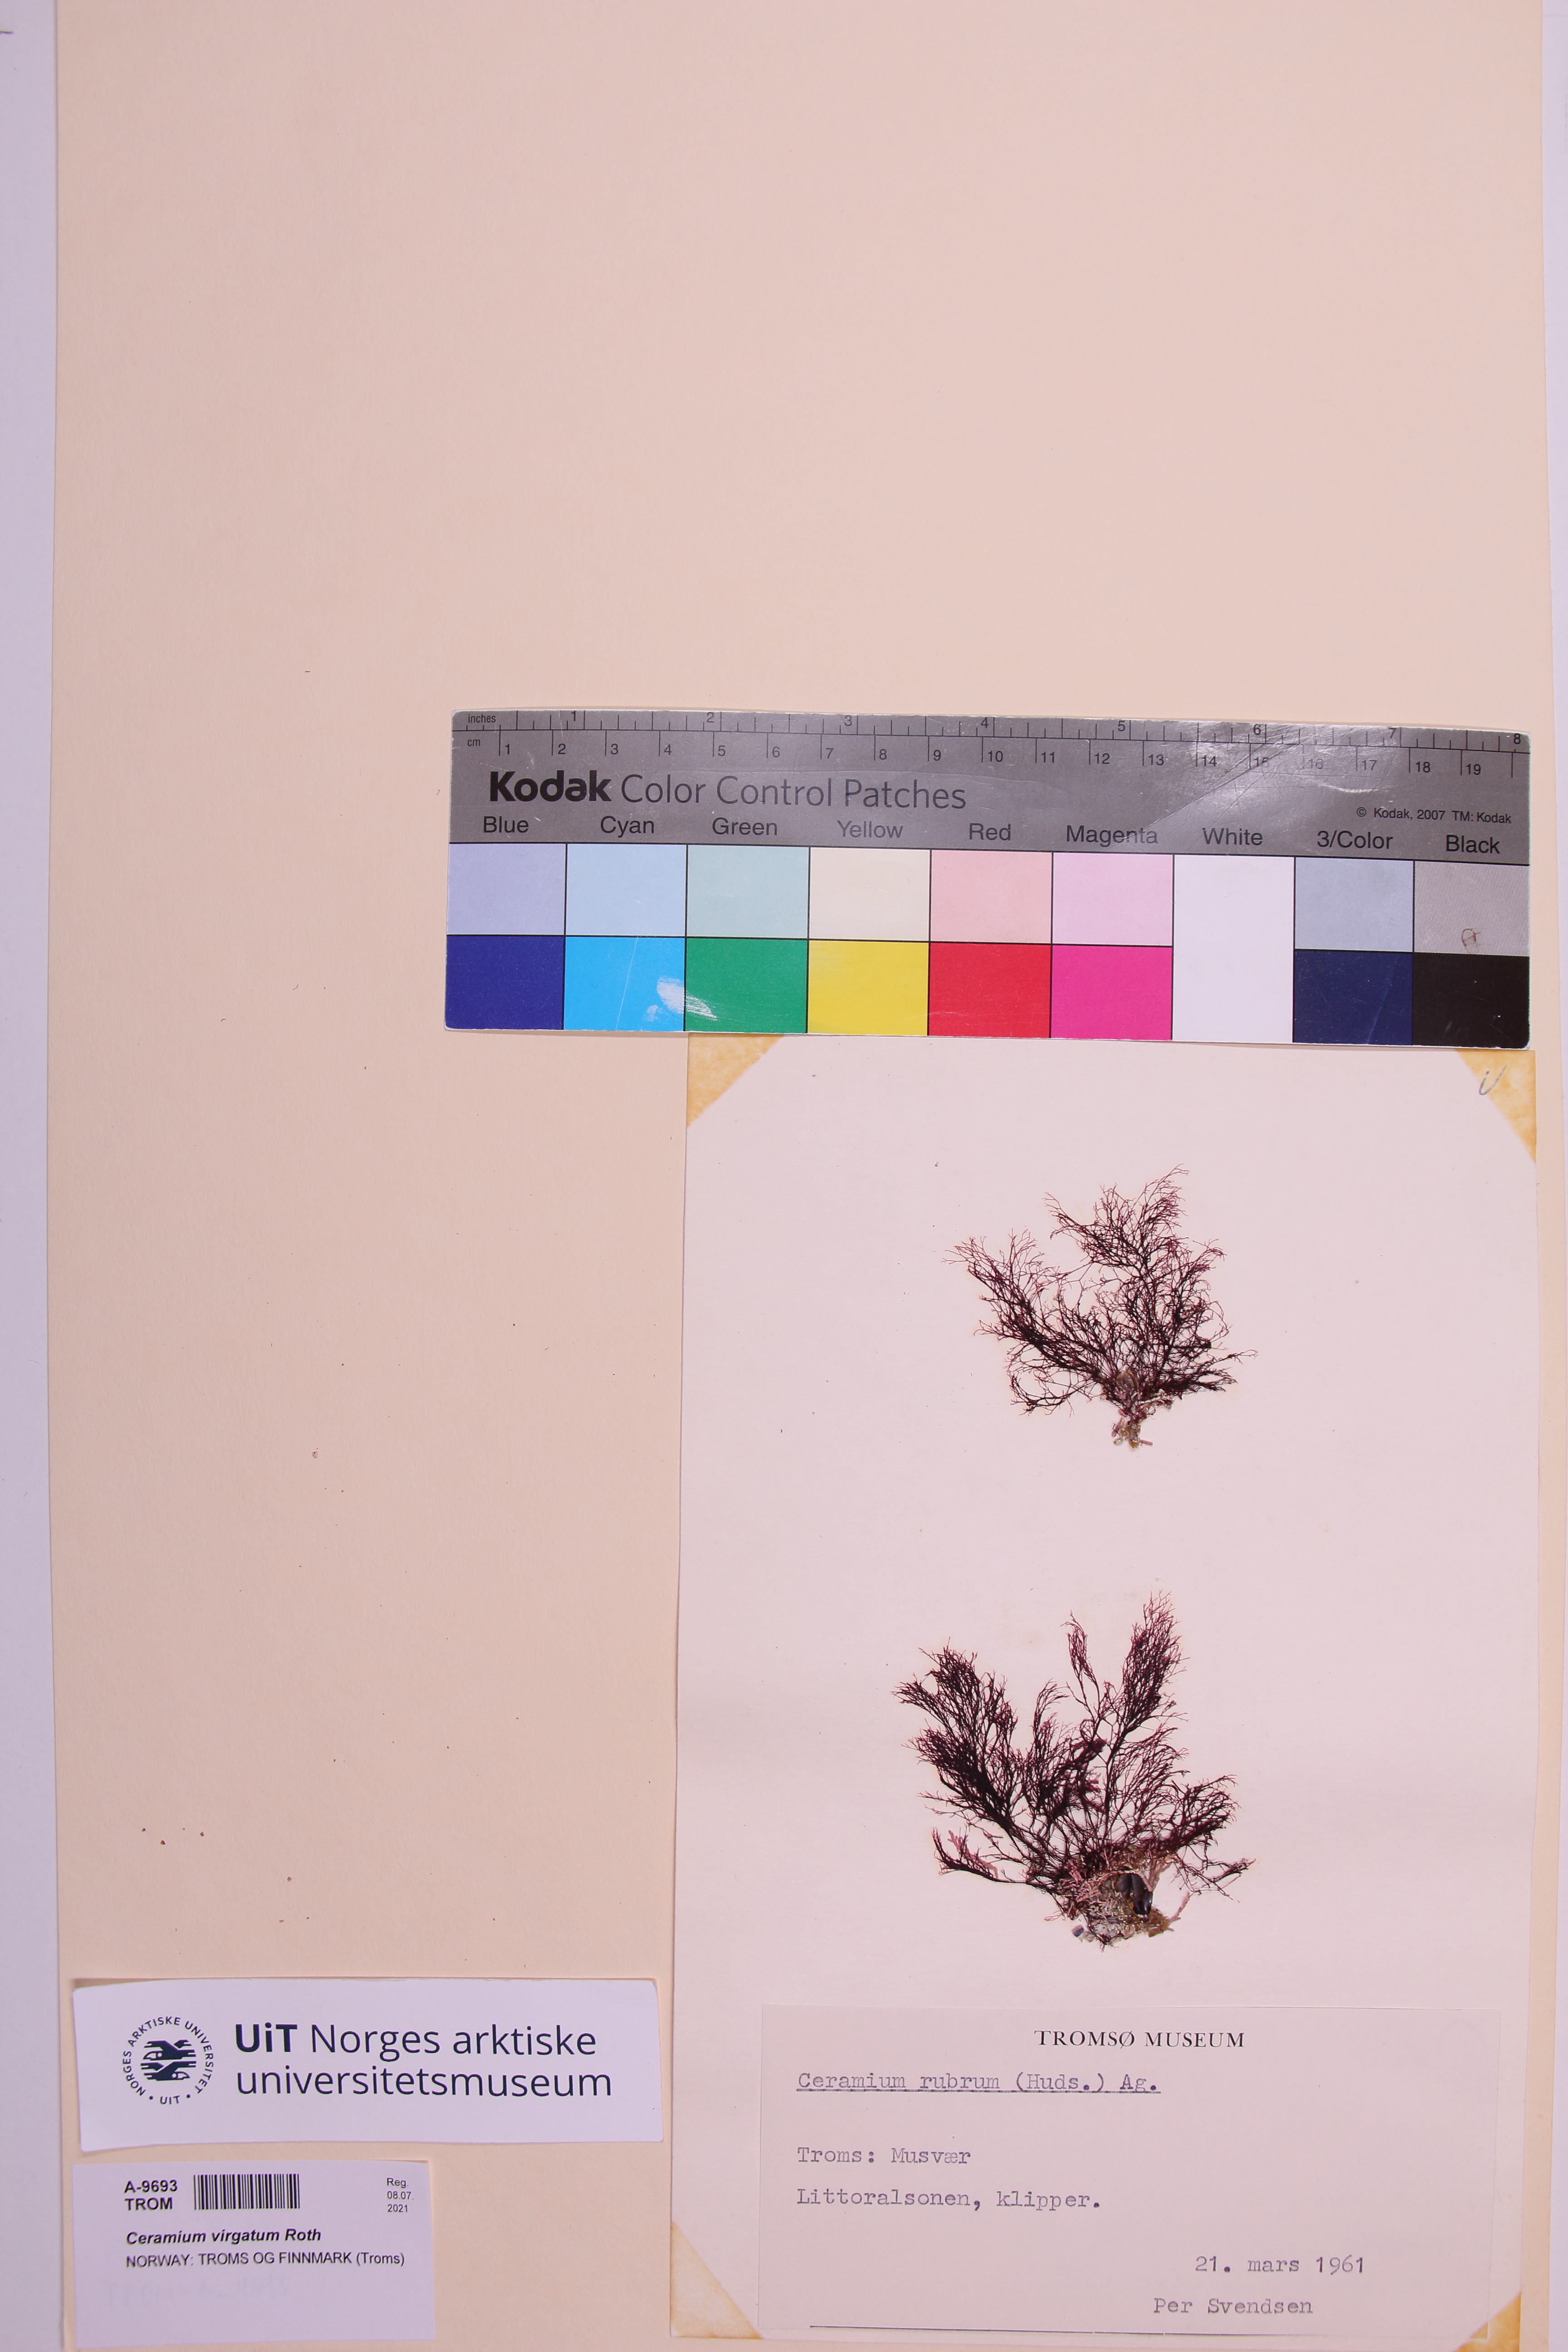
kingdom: Plantae
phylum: Rhodophyta
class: Florideophyceae
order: Ceramiales
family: Ceramiaceae
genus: Ceramium
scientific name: Ceramium virgatum
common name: Red hornweed
